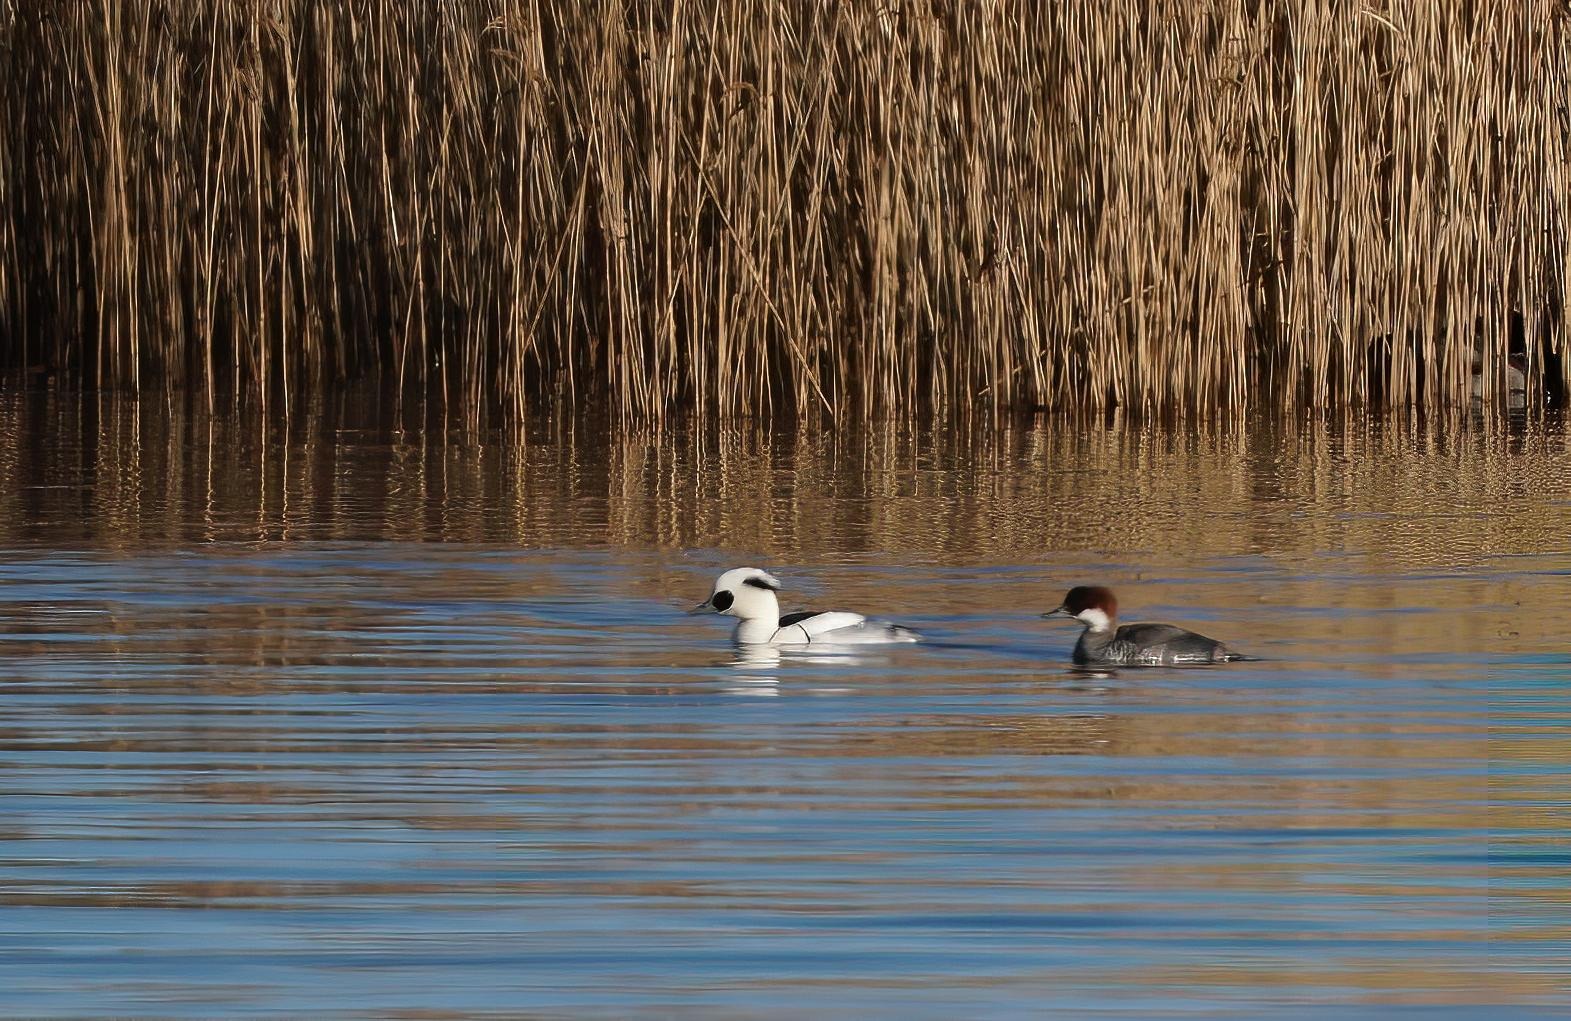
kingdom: Animalia
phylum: Chordata
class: Aves
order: Anseriformes
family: Anatidae
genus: Mergellus
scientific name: Mergellus albellus
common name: Lille skallesluger
